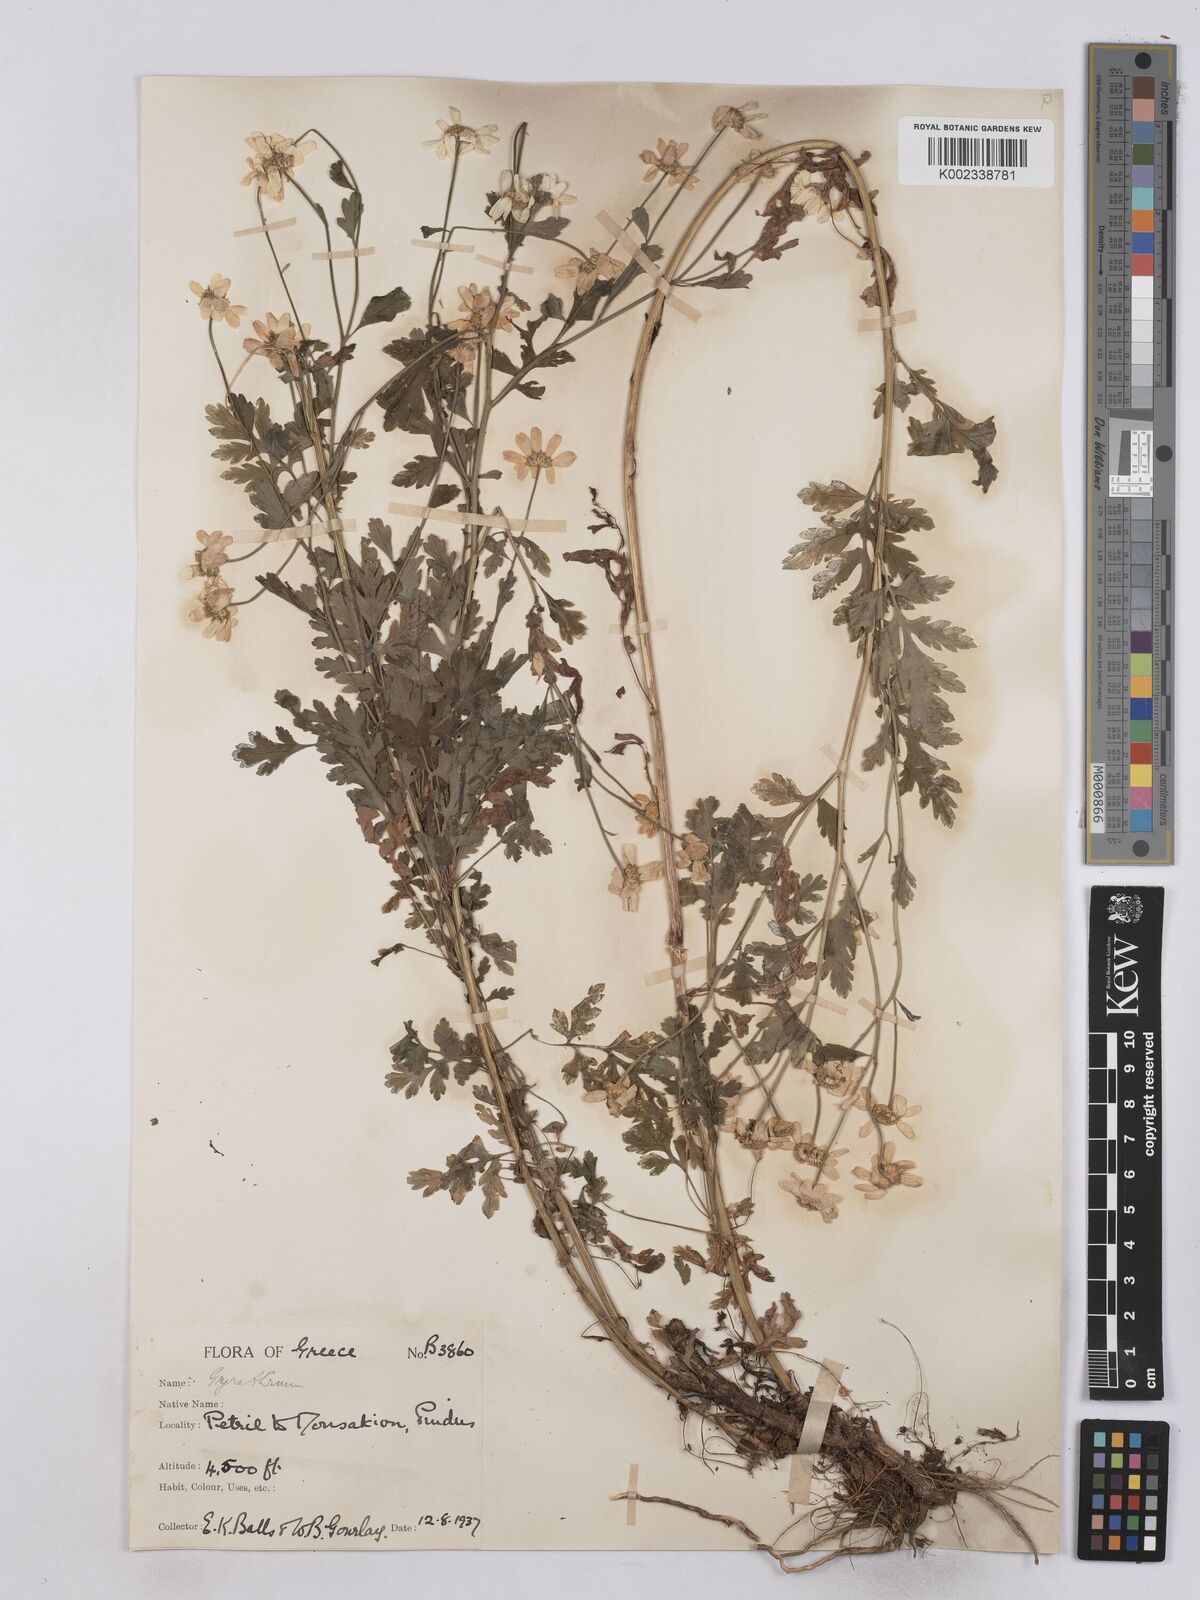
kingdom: Plantae
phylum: Tracheophyta
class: Magnoliopsida
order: Asterales
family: Asteraceae
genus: Tanacetum
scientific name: Tanacetum parthenium
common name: Feverfew
